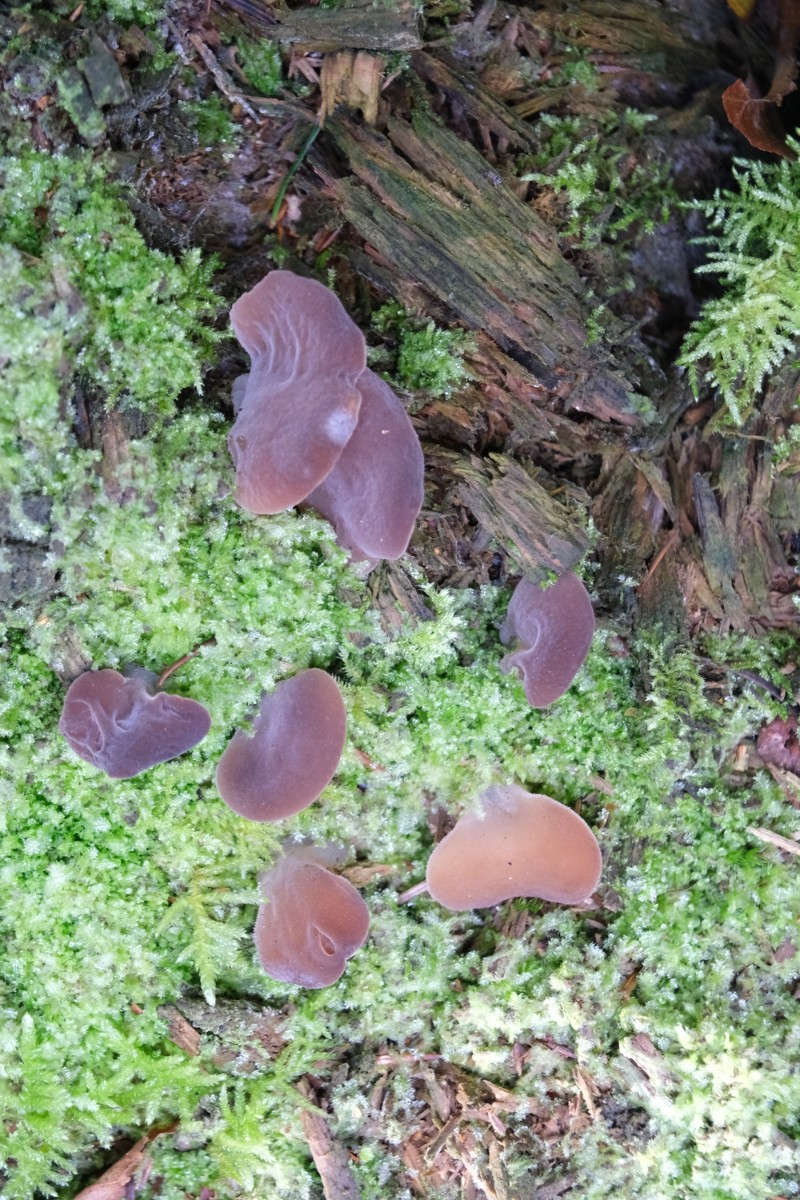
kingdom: Fungi
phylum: Basidiomycota
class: Agaricomycetes
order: Auriculariales
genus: Pseudohydnum
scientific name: Pseudohydnum gelatinosum
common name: bævretand
